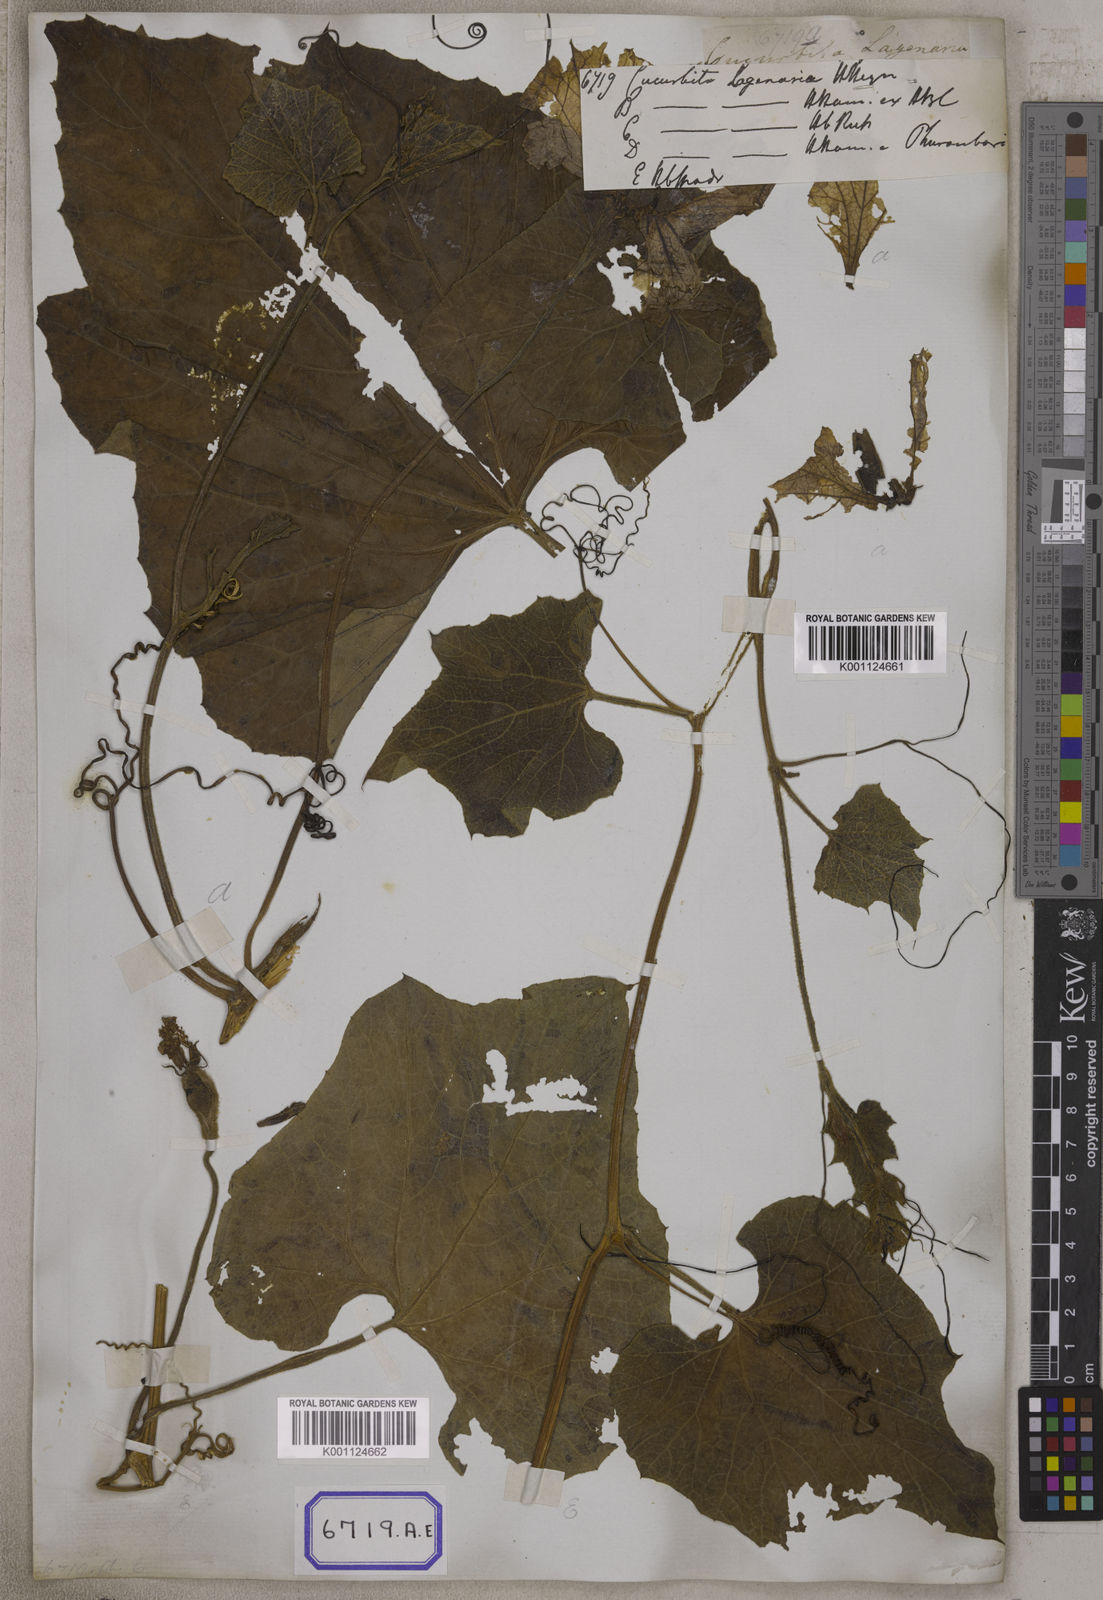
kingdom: Plantae
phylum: Tracheophyta
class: Magnoliopsida
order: Cucurbitales
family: Cucurbitaceae
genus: Lagenaria
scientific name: Lagenaria siceraria
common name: Bottle gourd
